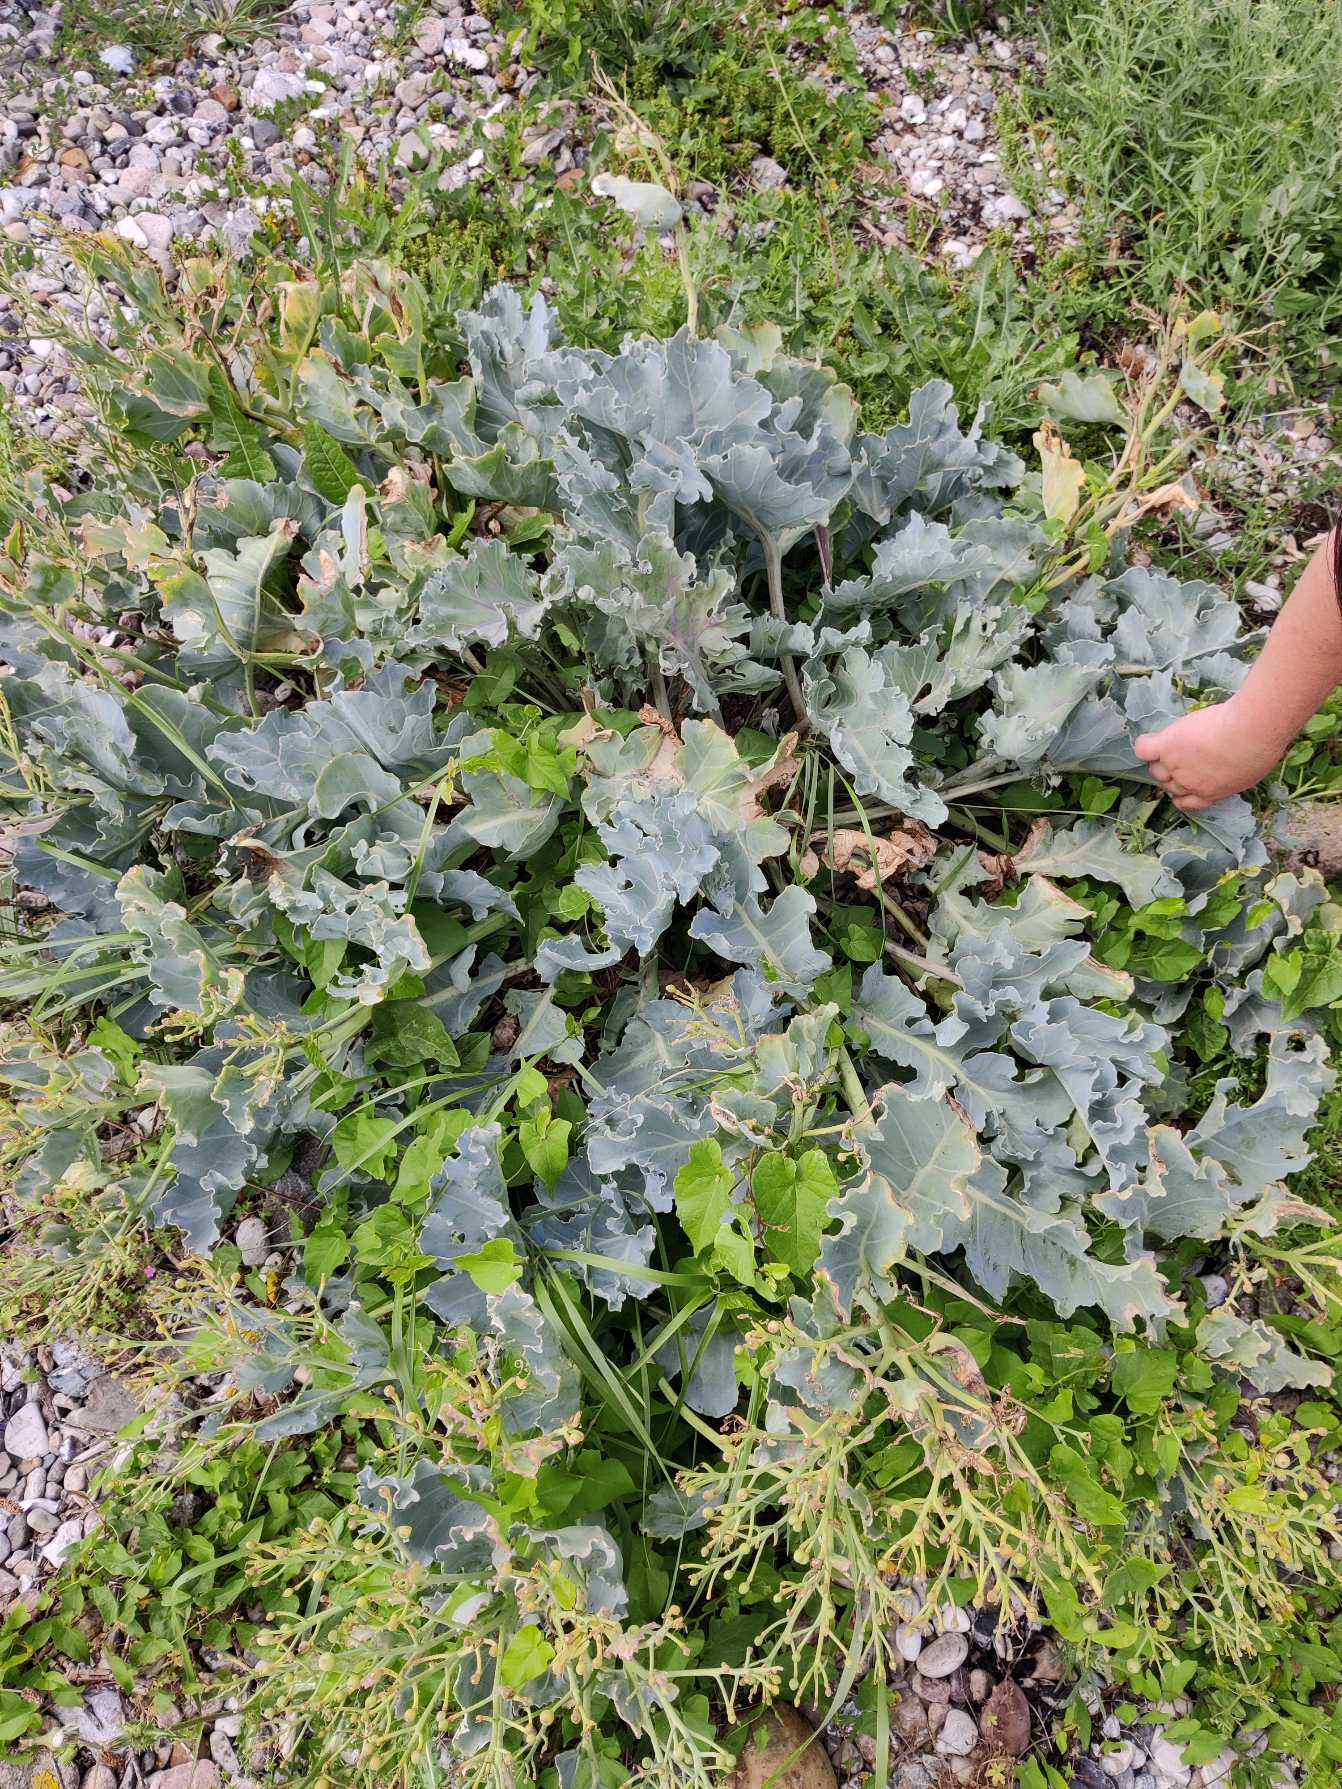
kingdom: Plantae
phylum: Tracheophyta
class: Magnoliopsida
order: Brassicales
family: Brassicaceae
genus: Crambe
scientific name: Crambe maritima
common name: Strandkål
